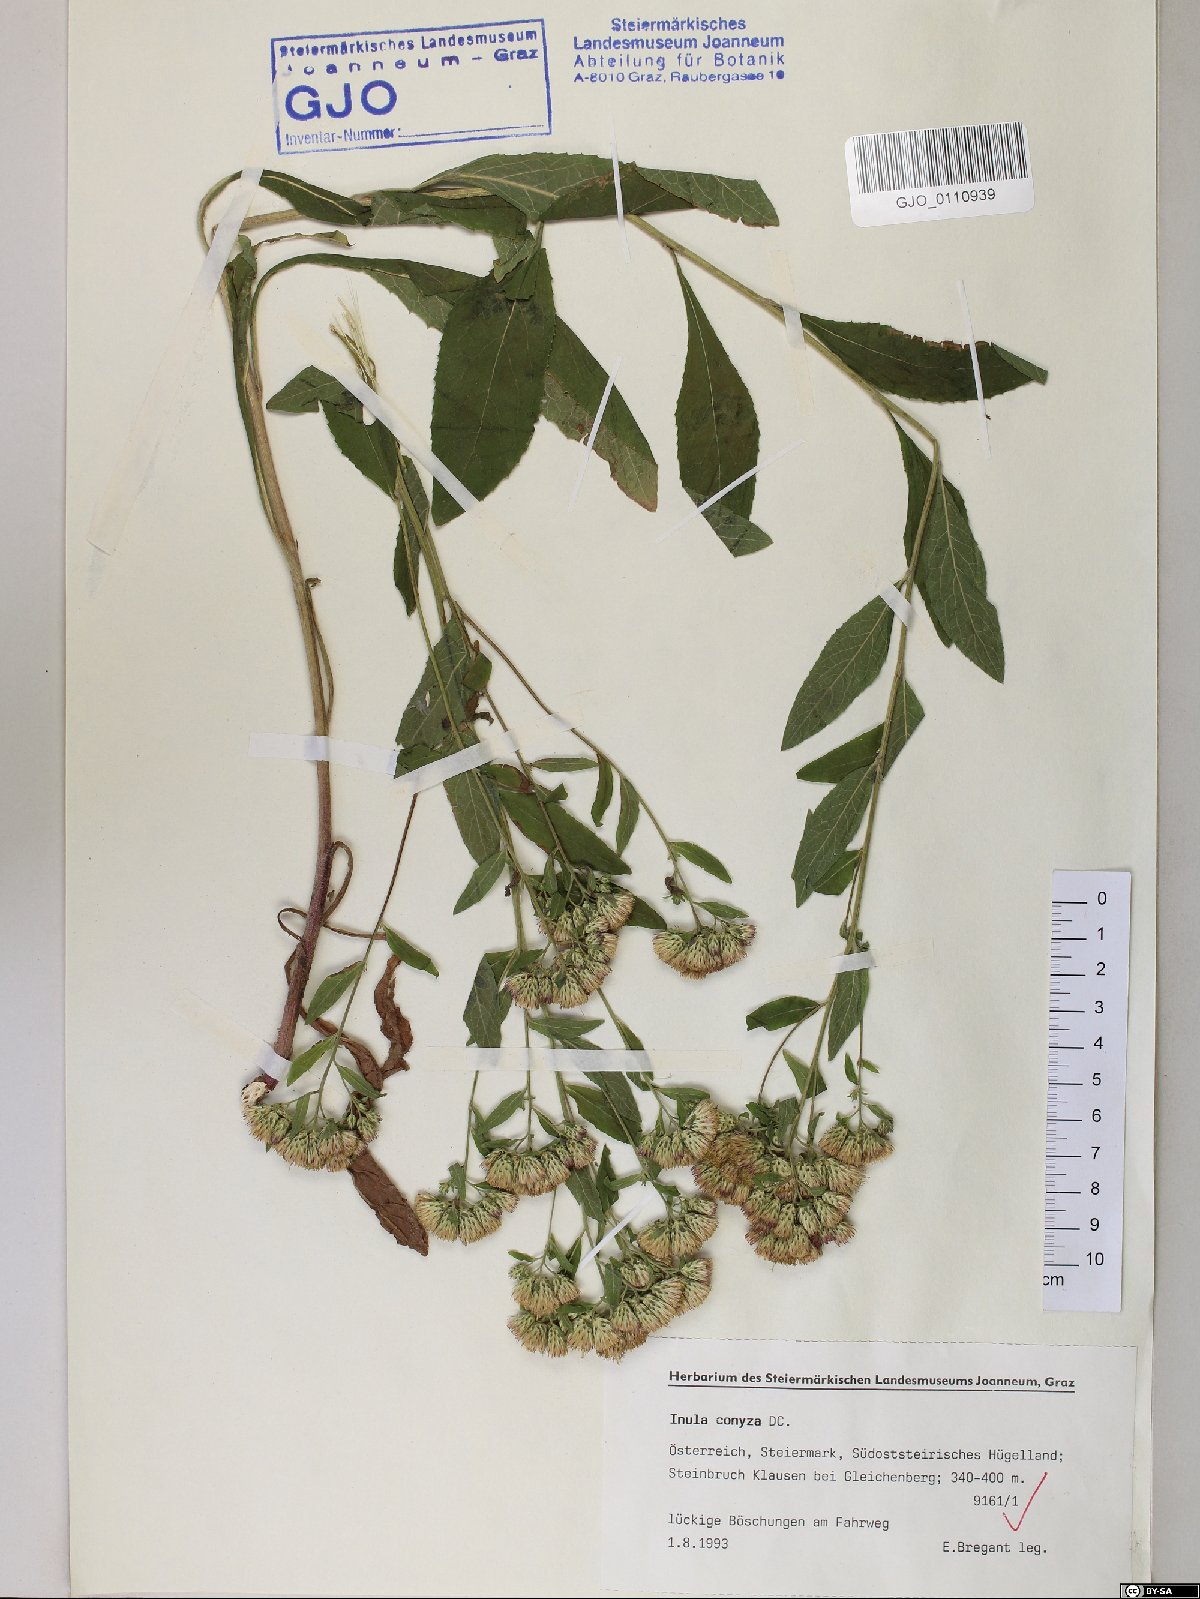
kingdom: Plantae
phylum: Tracheophyta
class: Magnoliopsida
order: Asterales
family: Asteraceae
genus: Pentanema
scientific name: Pentanema squarrosum
